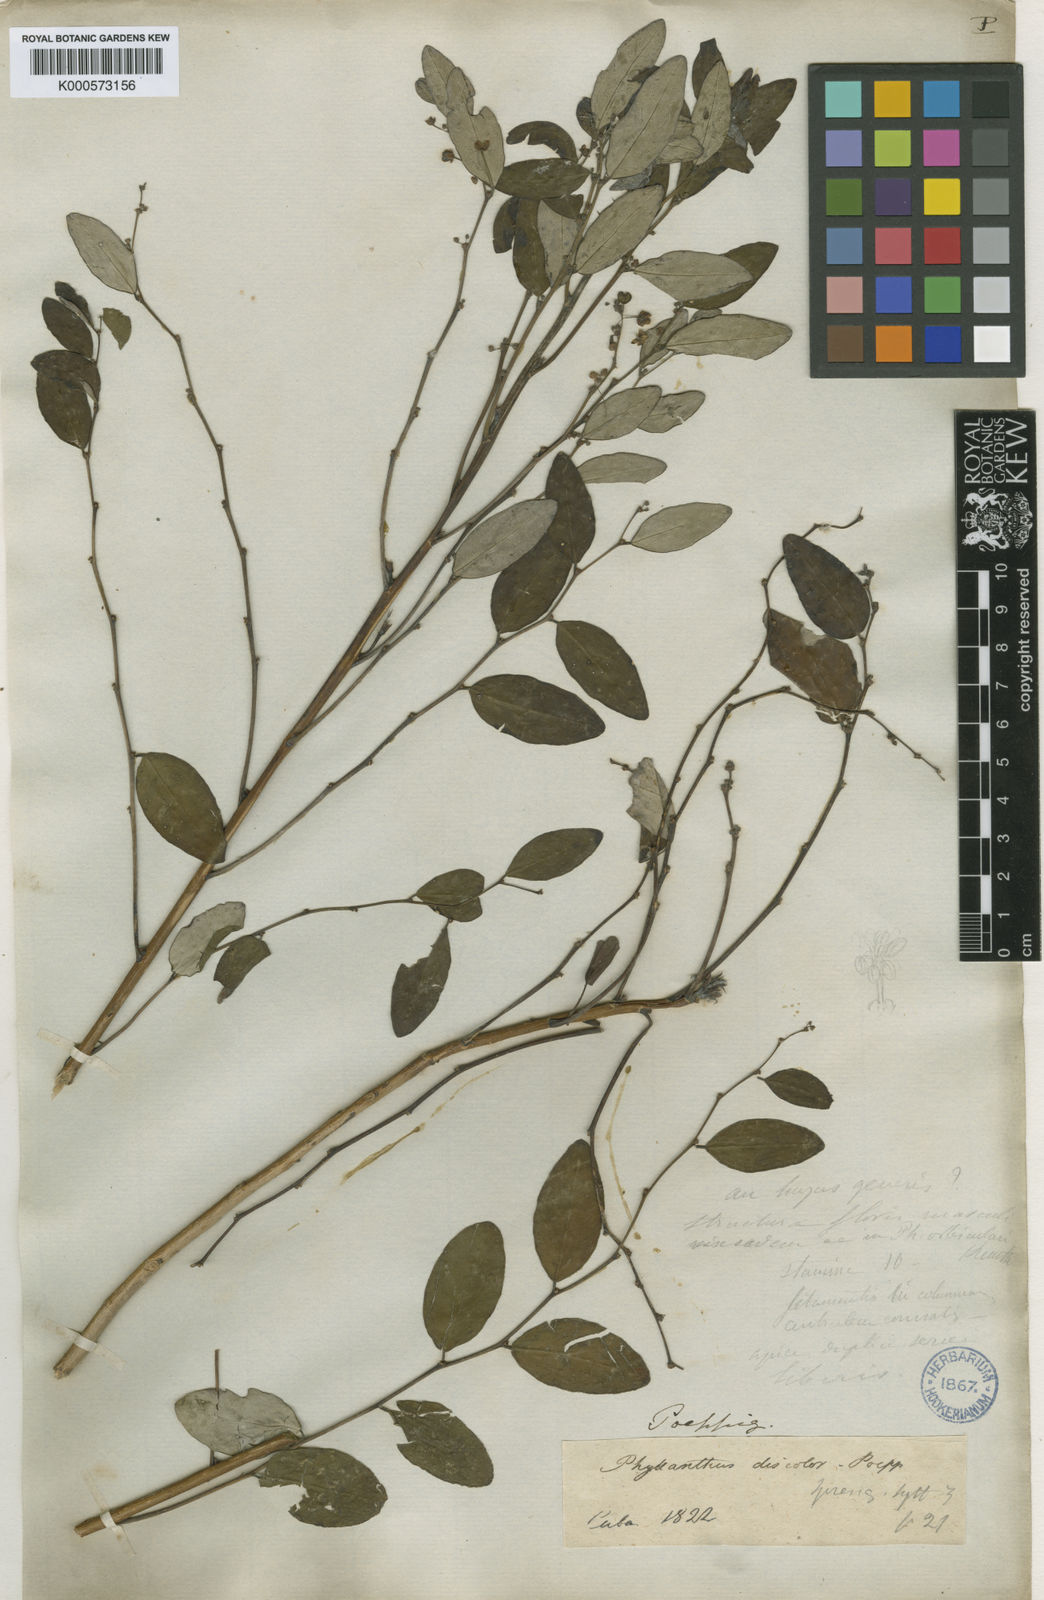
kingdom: Plantae
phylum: Tracheophyta
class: Magnoliopsida
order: Malpighiales
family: Phyllanthaceae
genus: Phyllanthus
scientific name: Phyllanthus discolor
